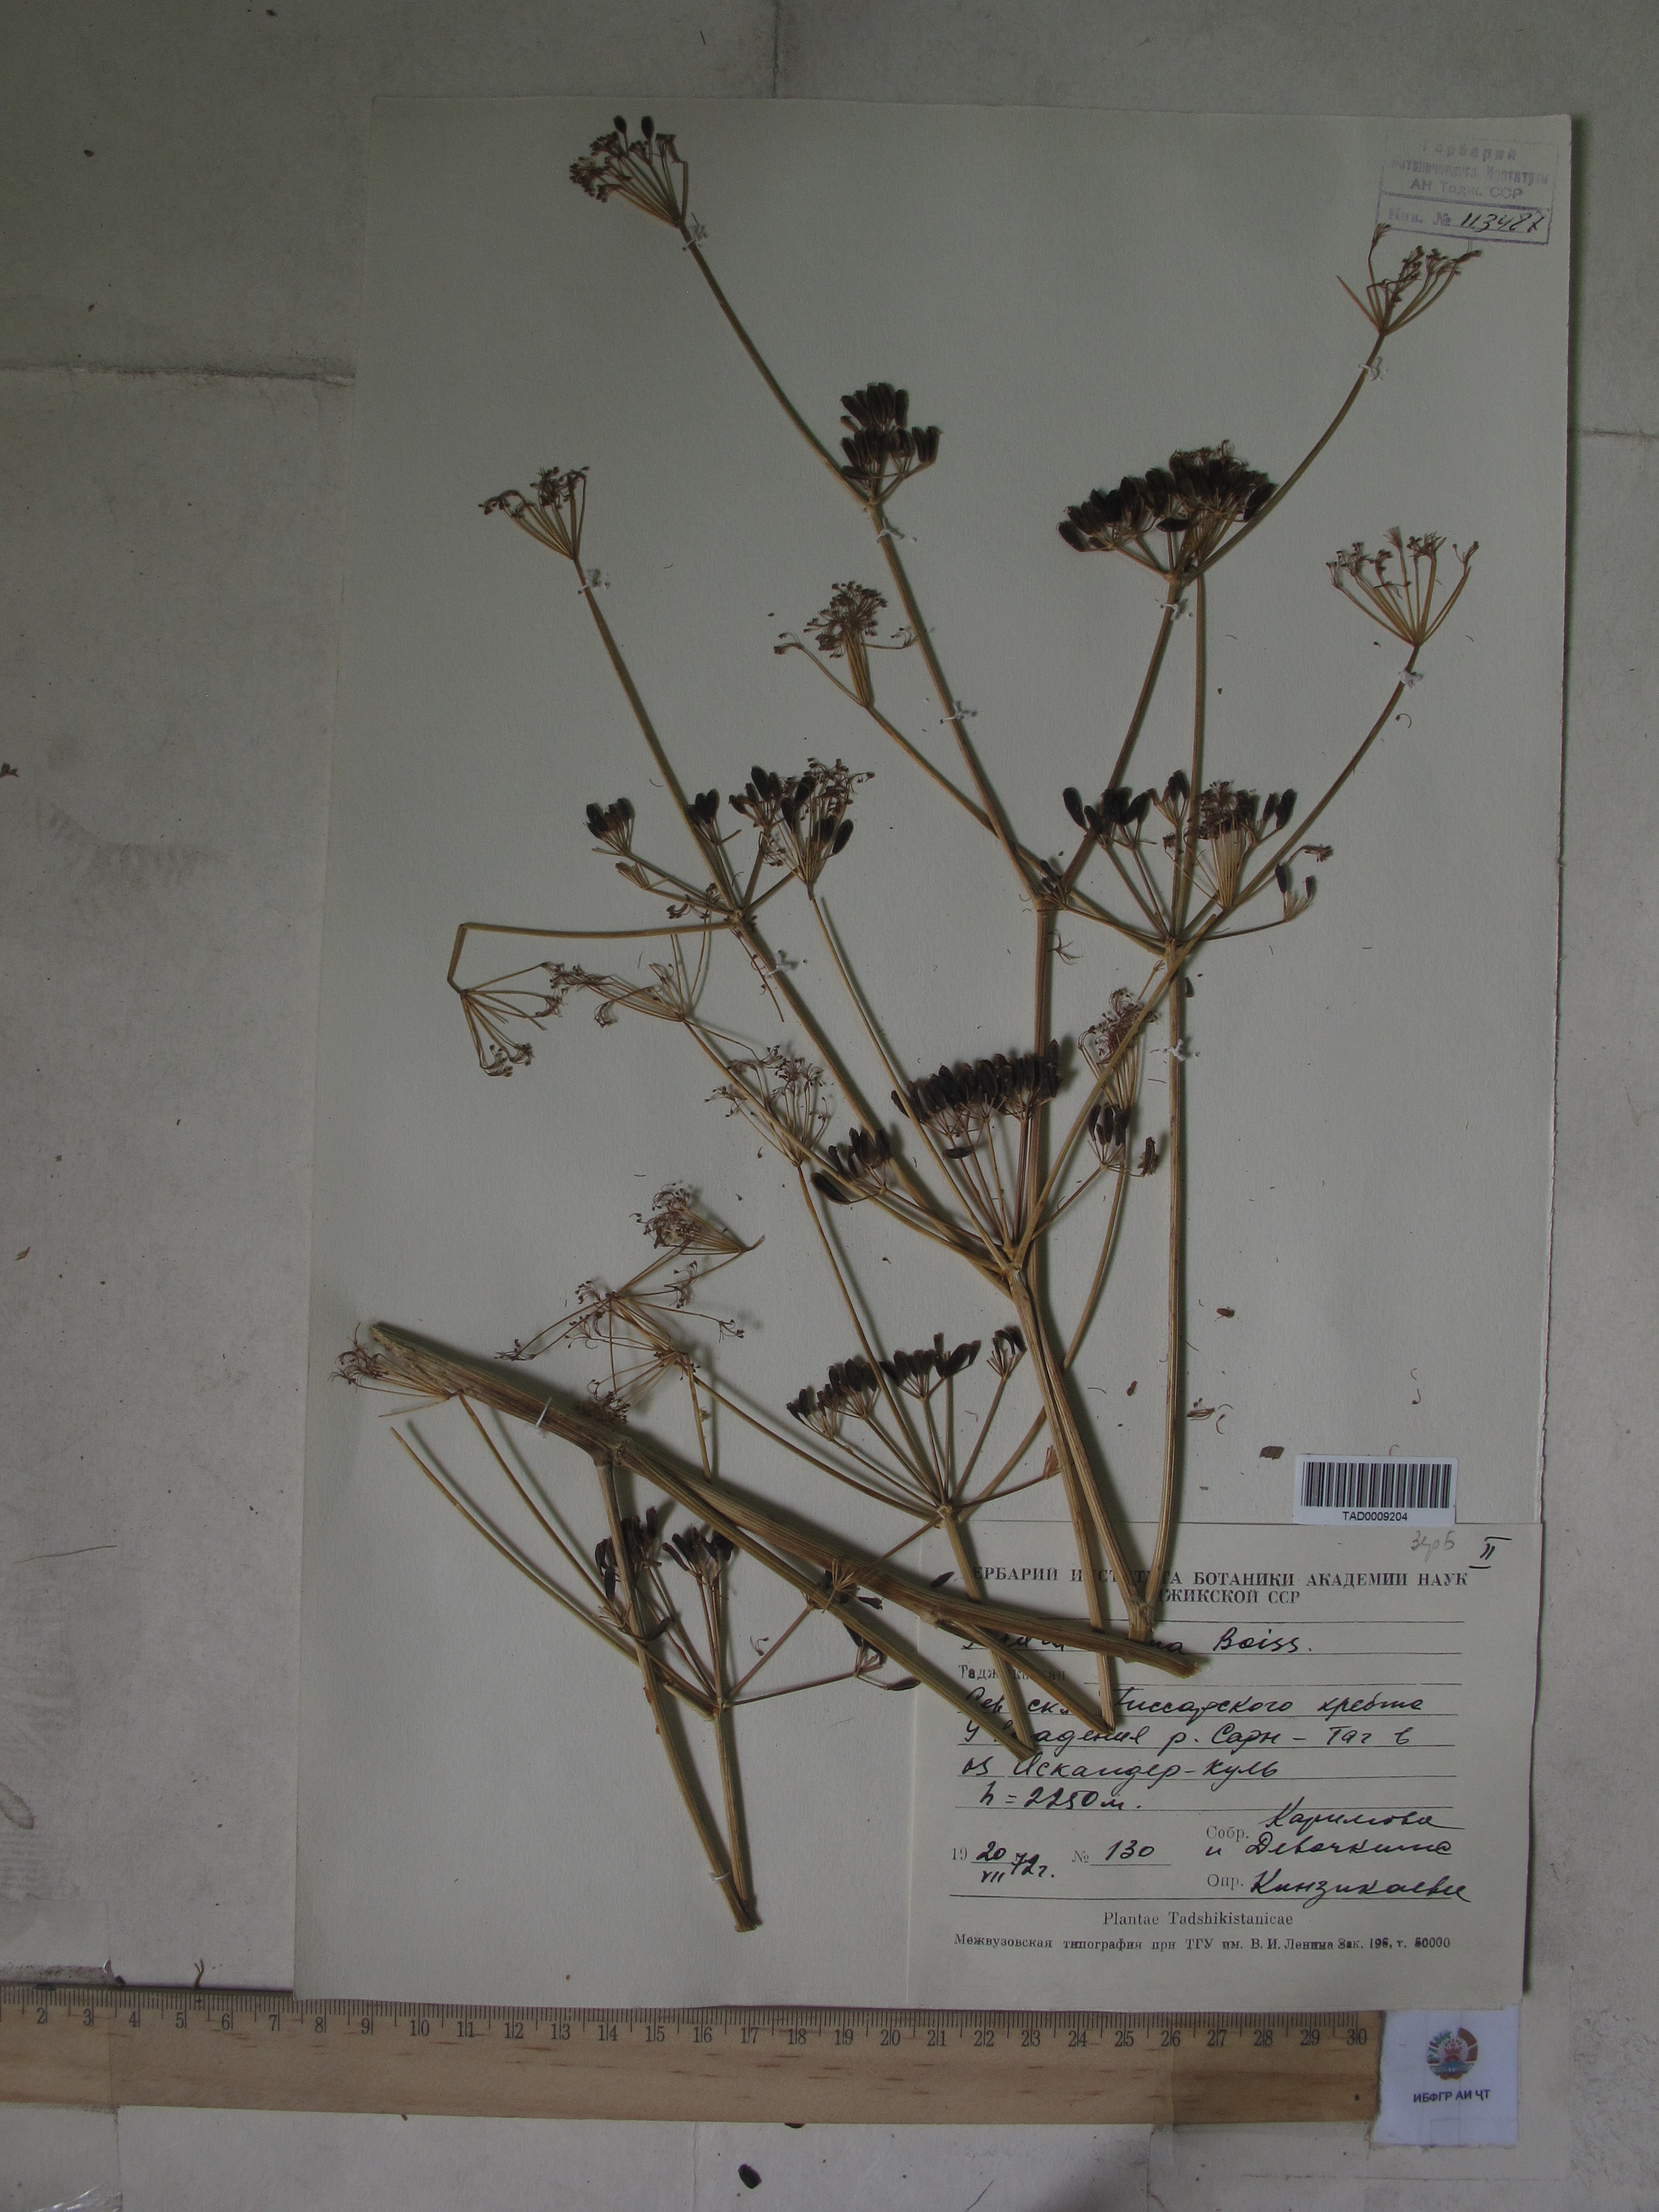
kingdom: Plantae
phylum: Tracheophyta
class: Magnoliopsida
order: Apiales
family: Apiaceae
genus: Ferula
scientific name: Ferula ovina
